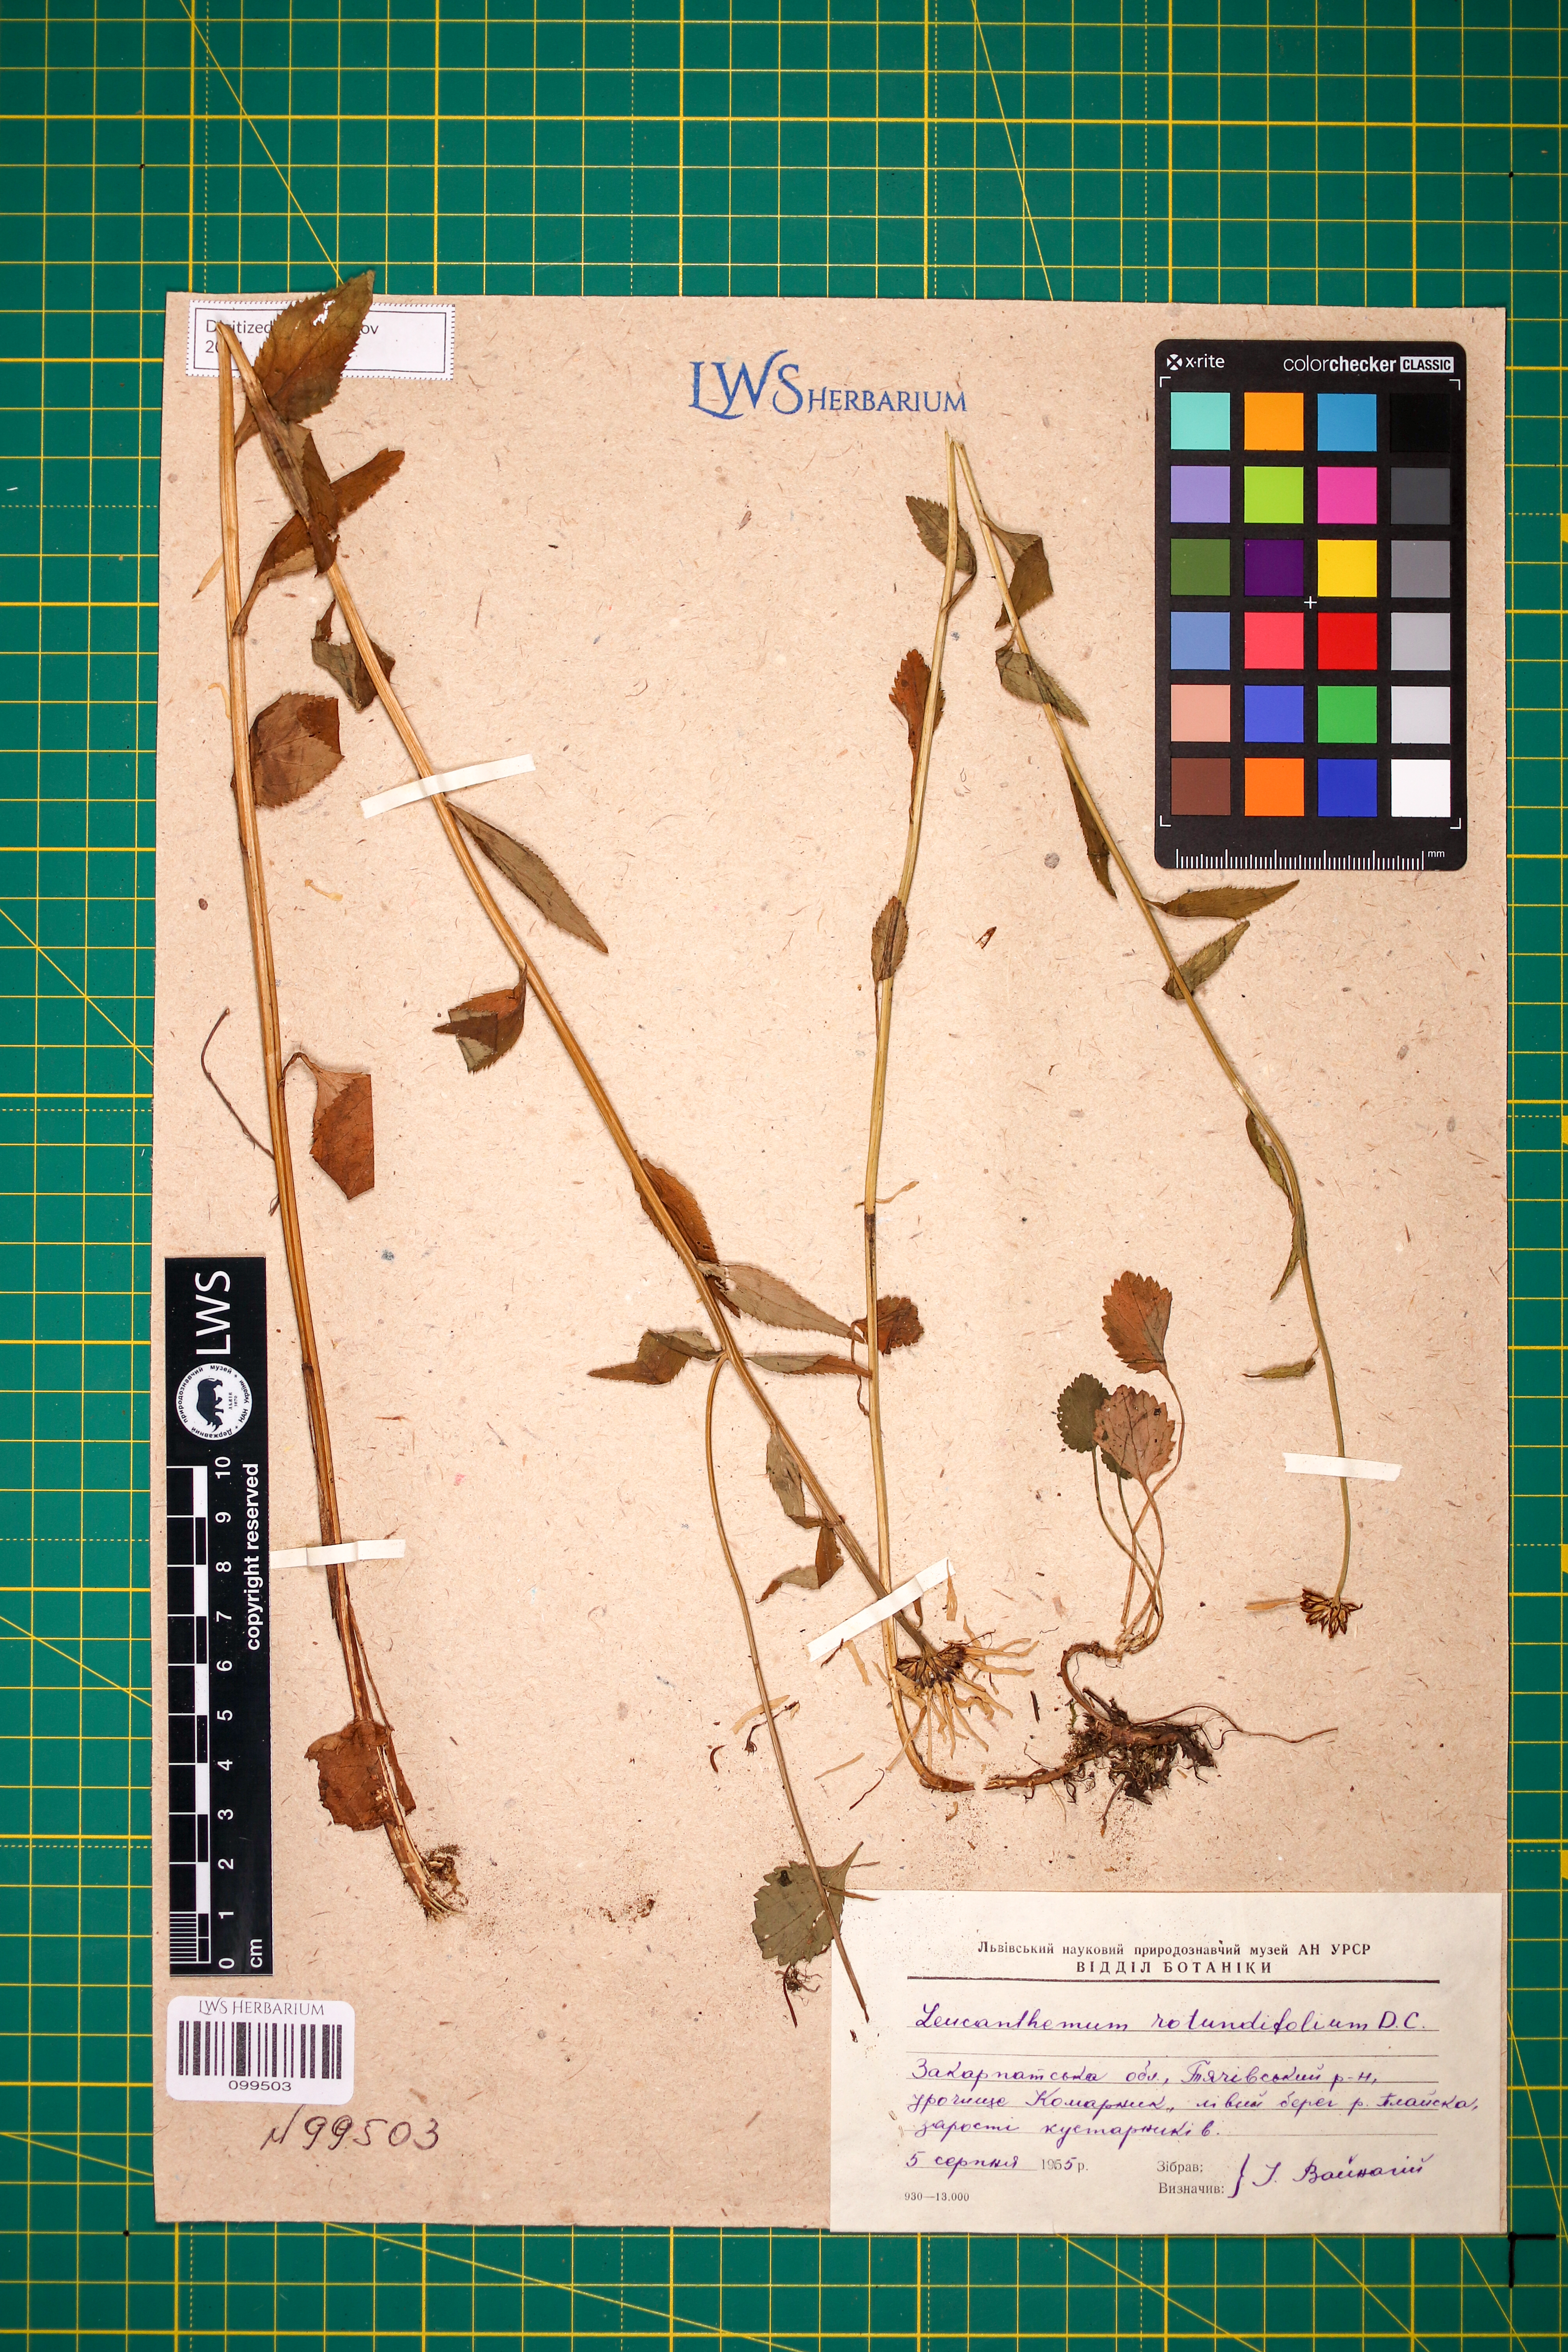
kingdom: Plantae
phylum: Tracheophyta
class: Magnoliopsida
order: Asterales
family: Asteraceae
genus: Leucanthemum
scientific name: Leucanthemum rotundifolium
